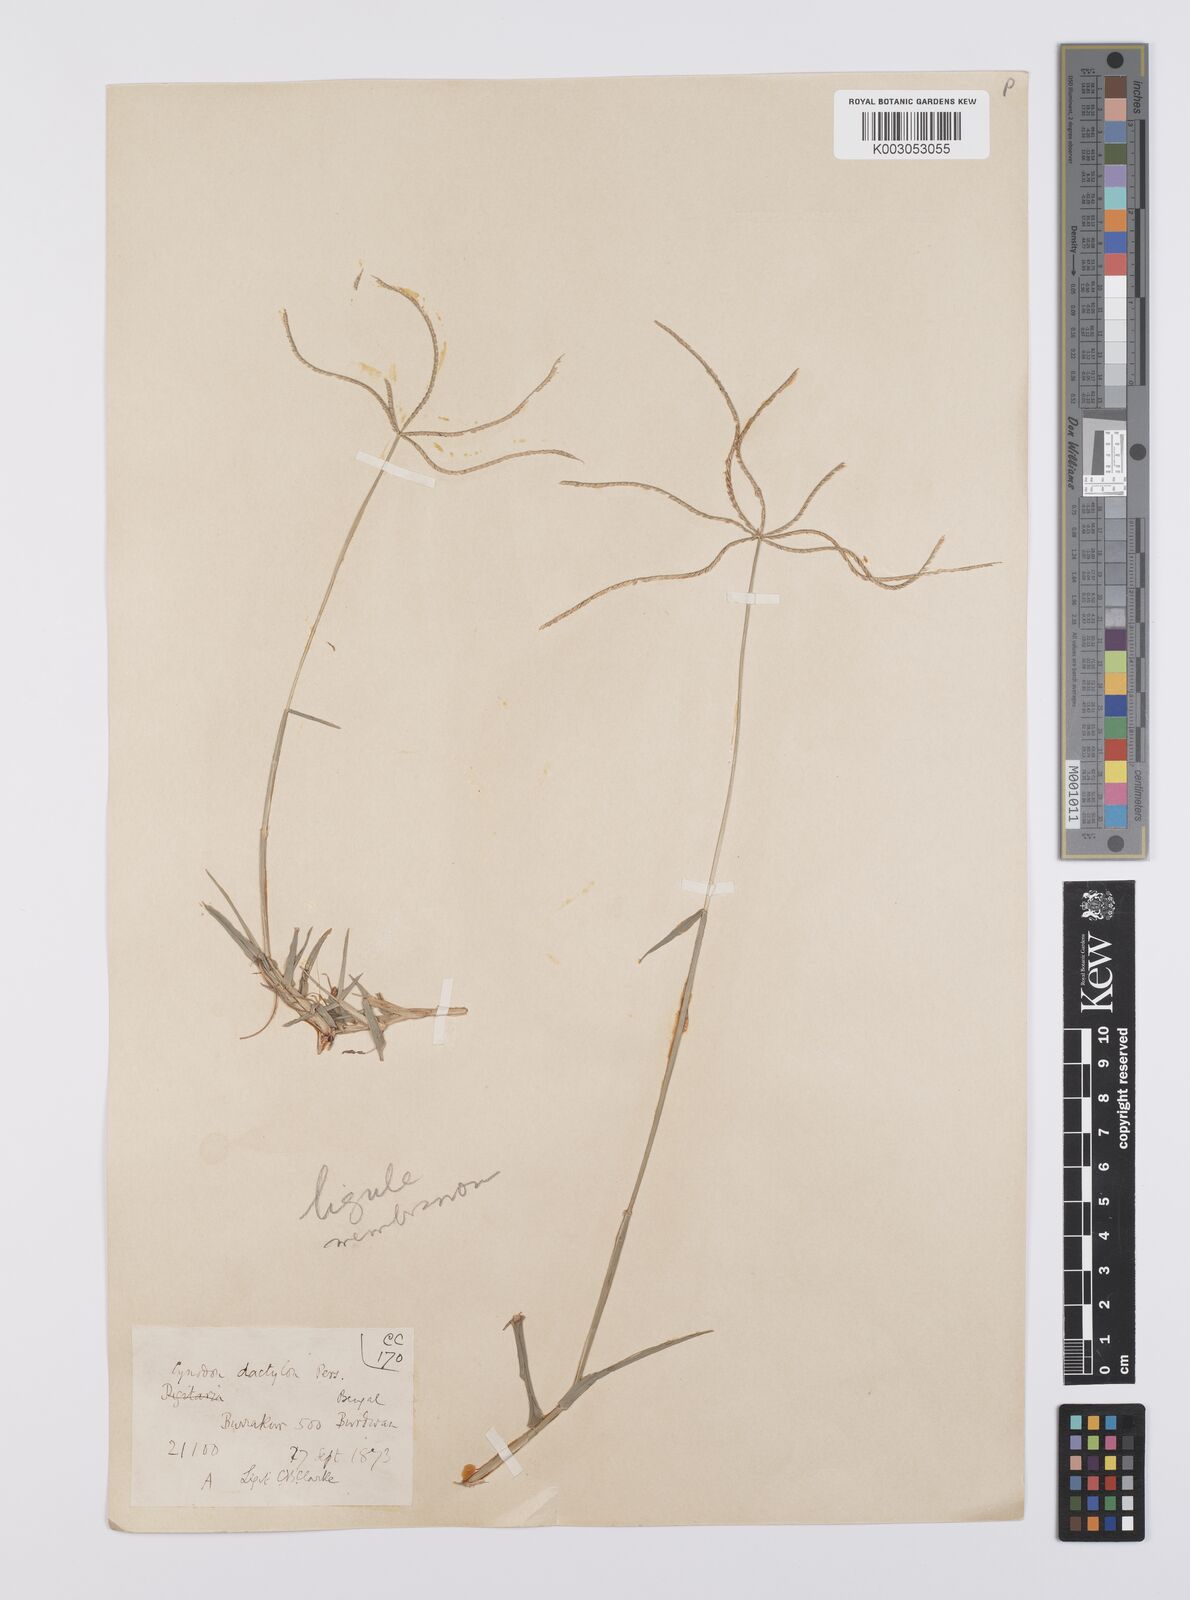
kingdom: Plantae
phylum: Tracheophyta
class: Liliopsida
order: Poales
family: Poaceae
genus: Cynodon
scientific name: Cynodon radiatus
